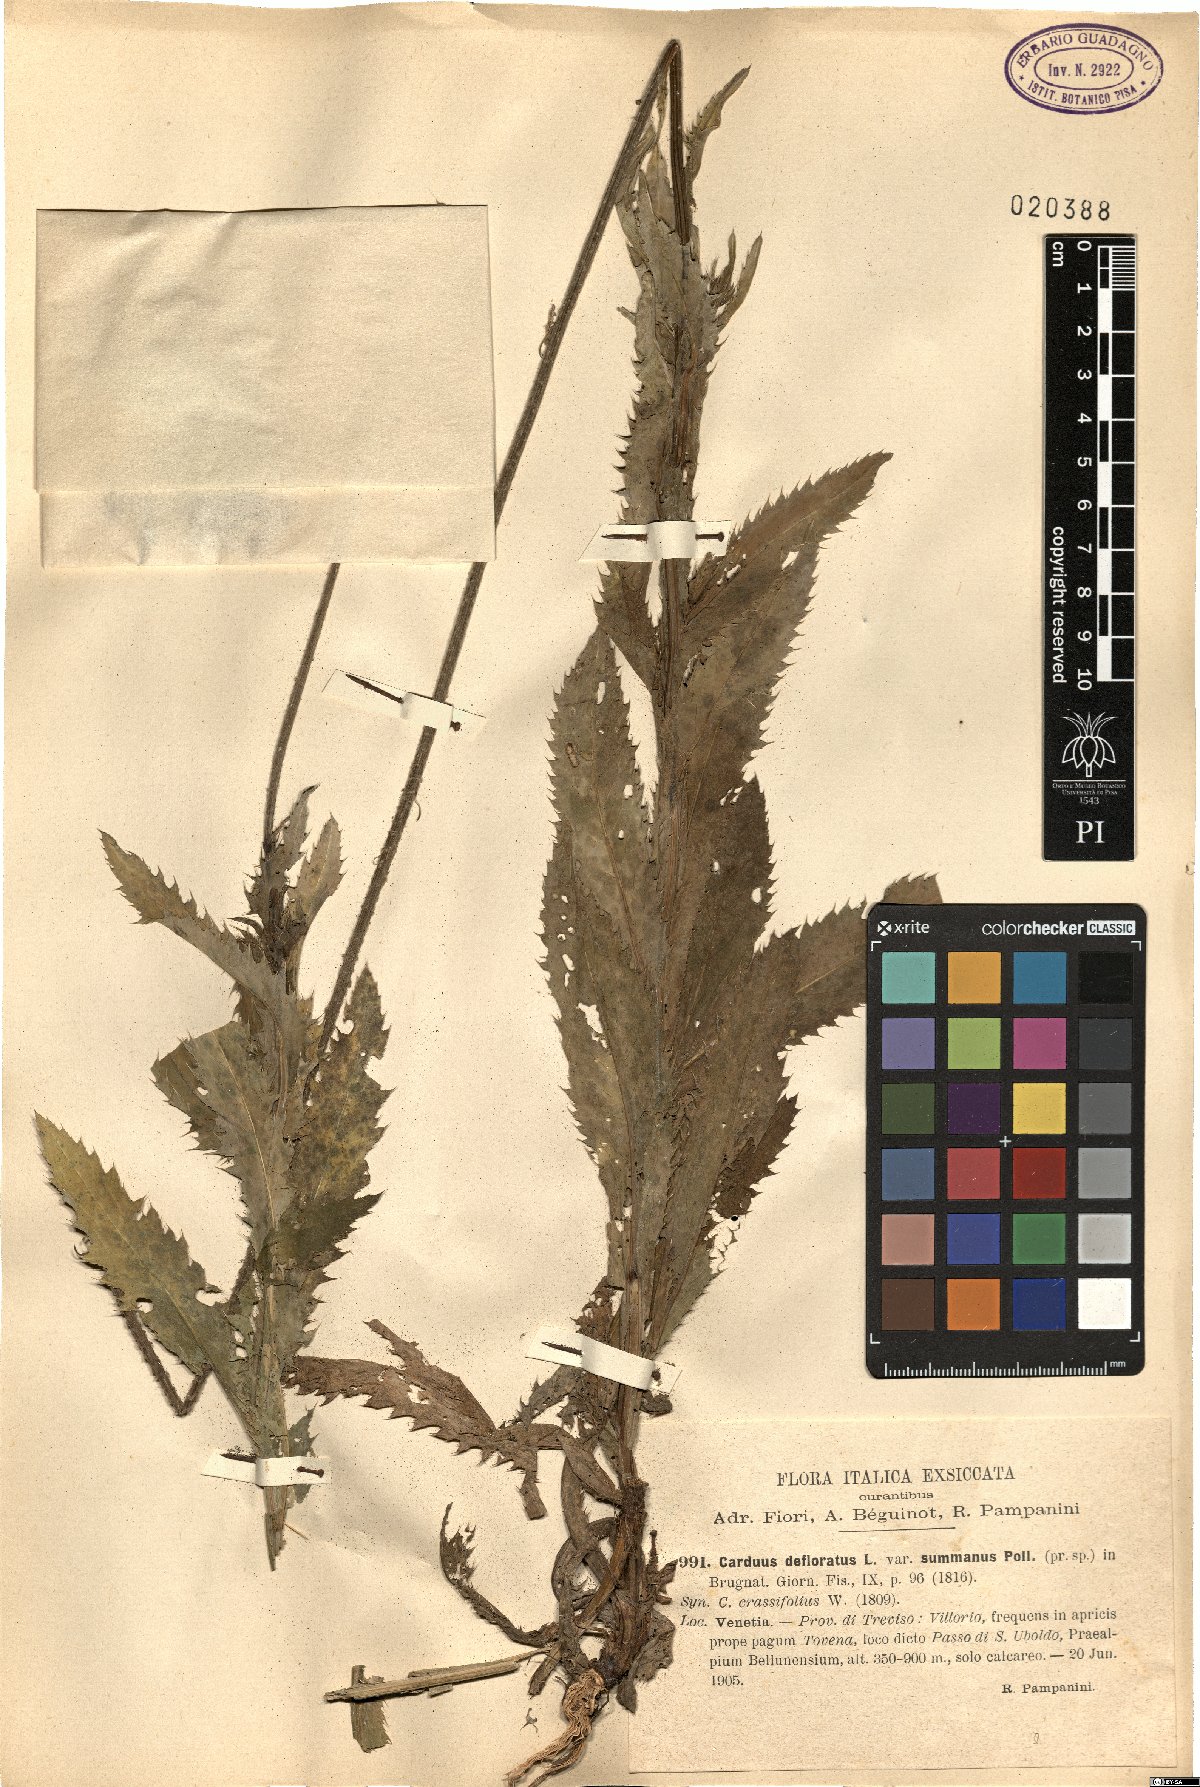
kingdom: Plantae
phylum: Tracheophyta
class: Magnoliopsida
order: Asterales
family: Asteraceae
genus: Carduus
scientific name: Carduus defloratus
